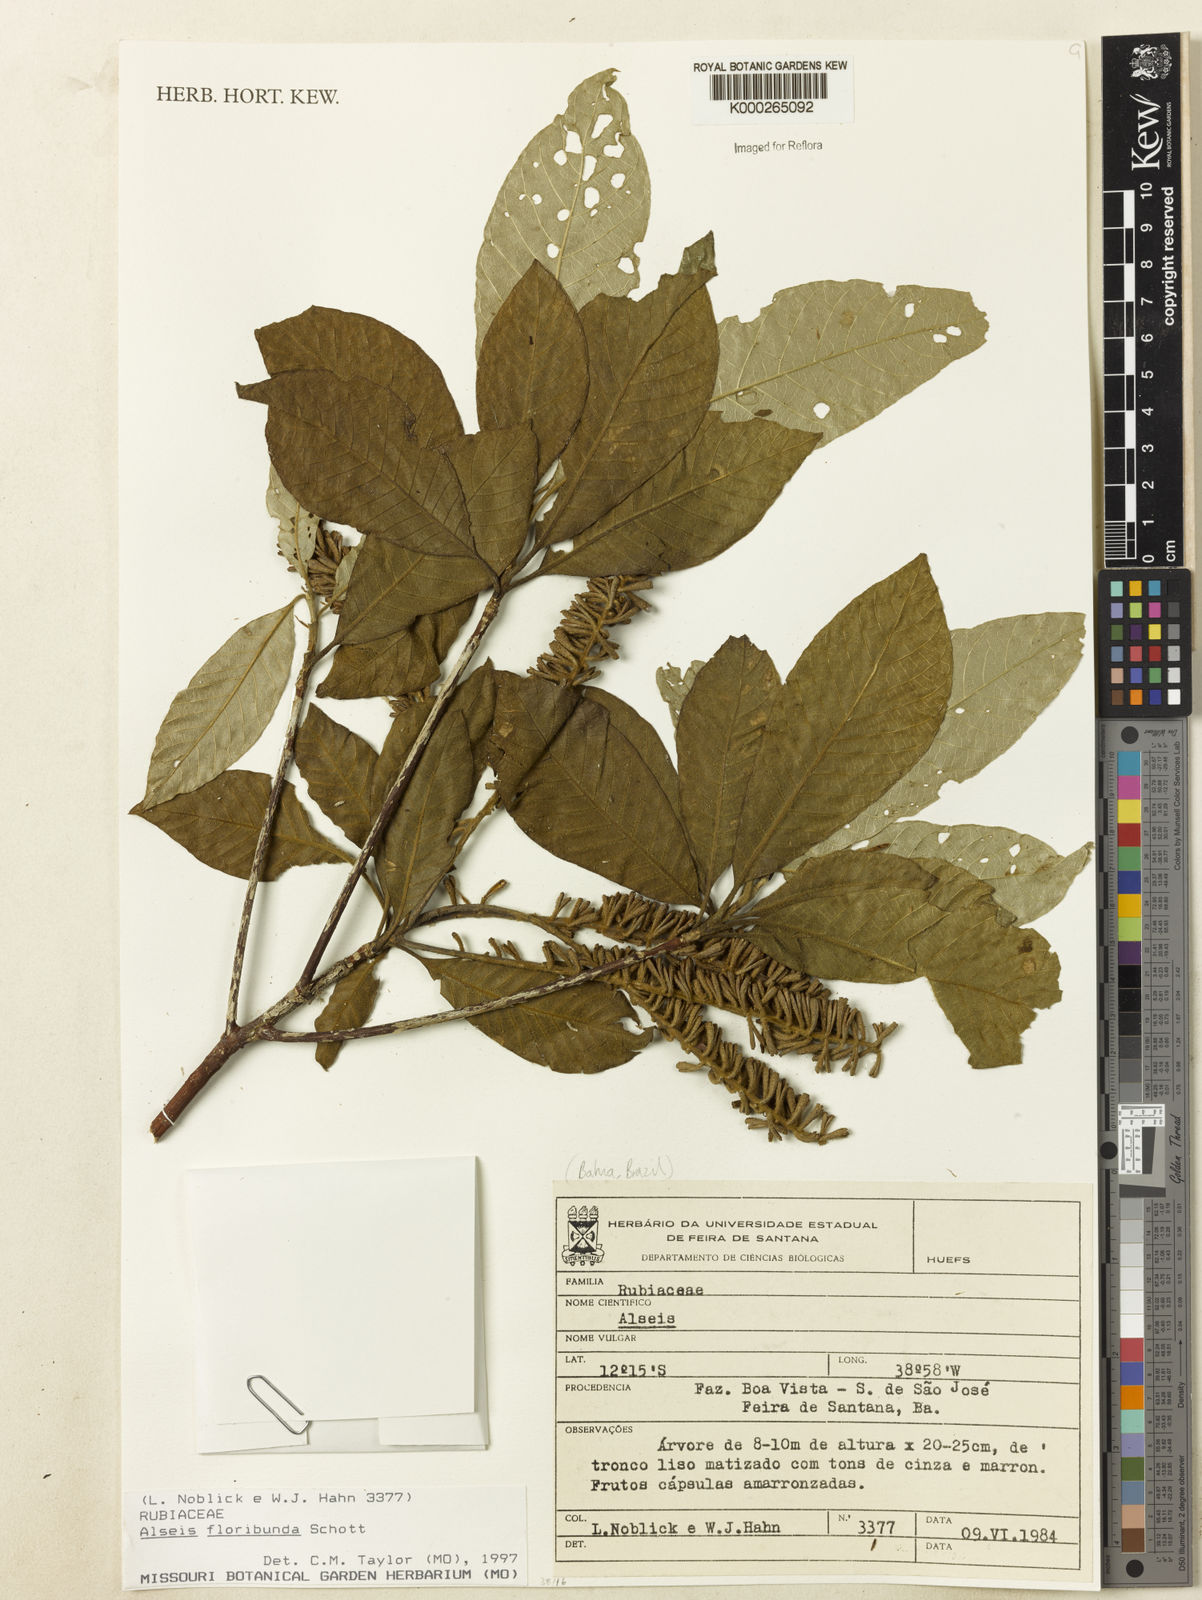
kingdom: Plantae
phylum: Tracheophyta
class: Magnoliopsida
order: Gentianales
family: Rubiaceae
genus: Alseis
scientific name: Alseis floribunda
